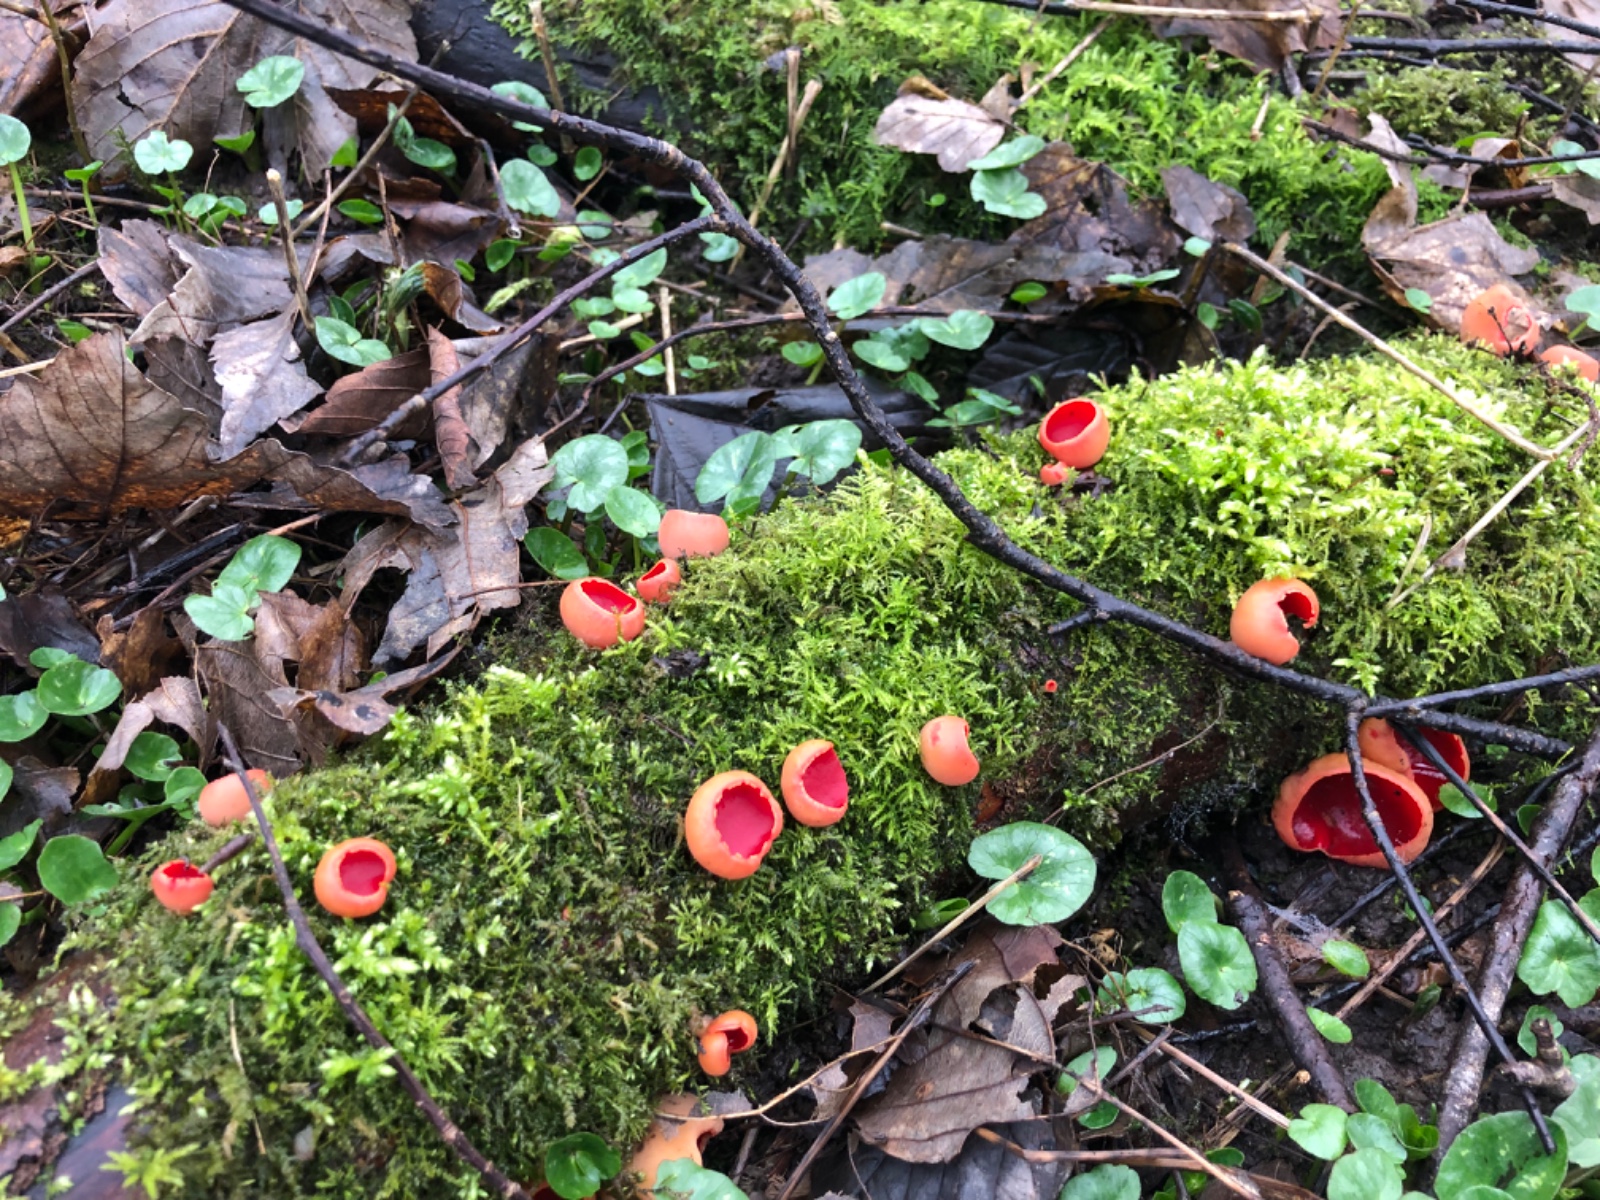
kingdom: Fungi
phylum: Ascomycota
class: Pezizomycetes
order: Pezizales
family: Sarcoscyphaceae
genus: Sarcoscypha
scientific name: Sarcoscypha austriaca
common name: krølhåret pragtbæger
